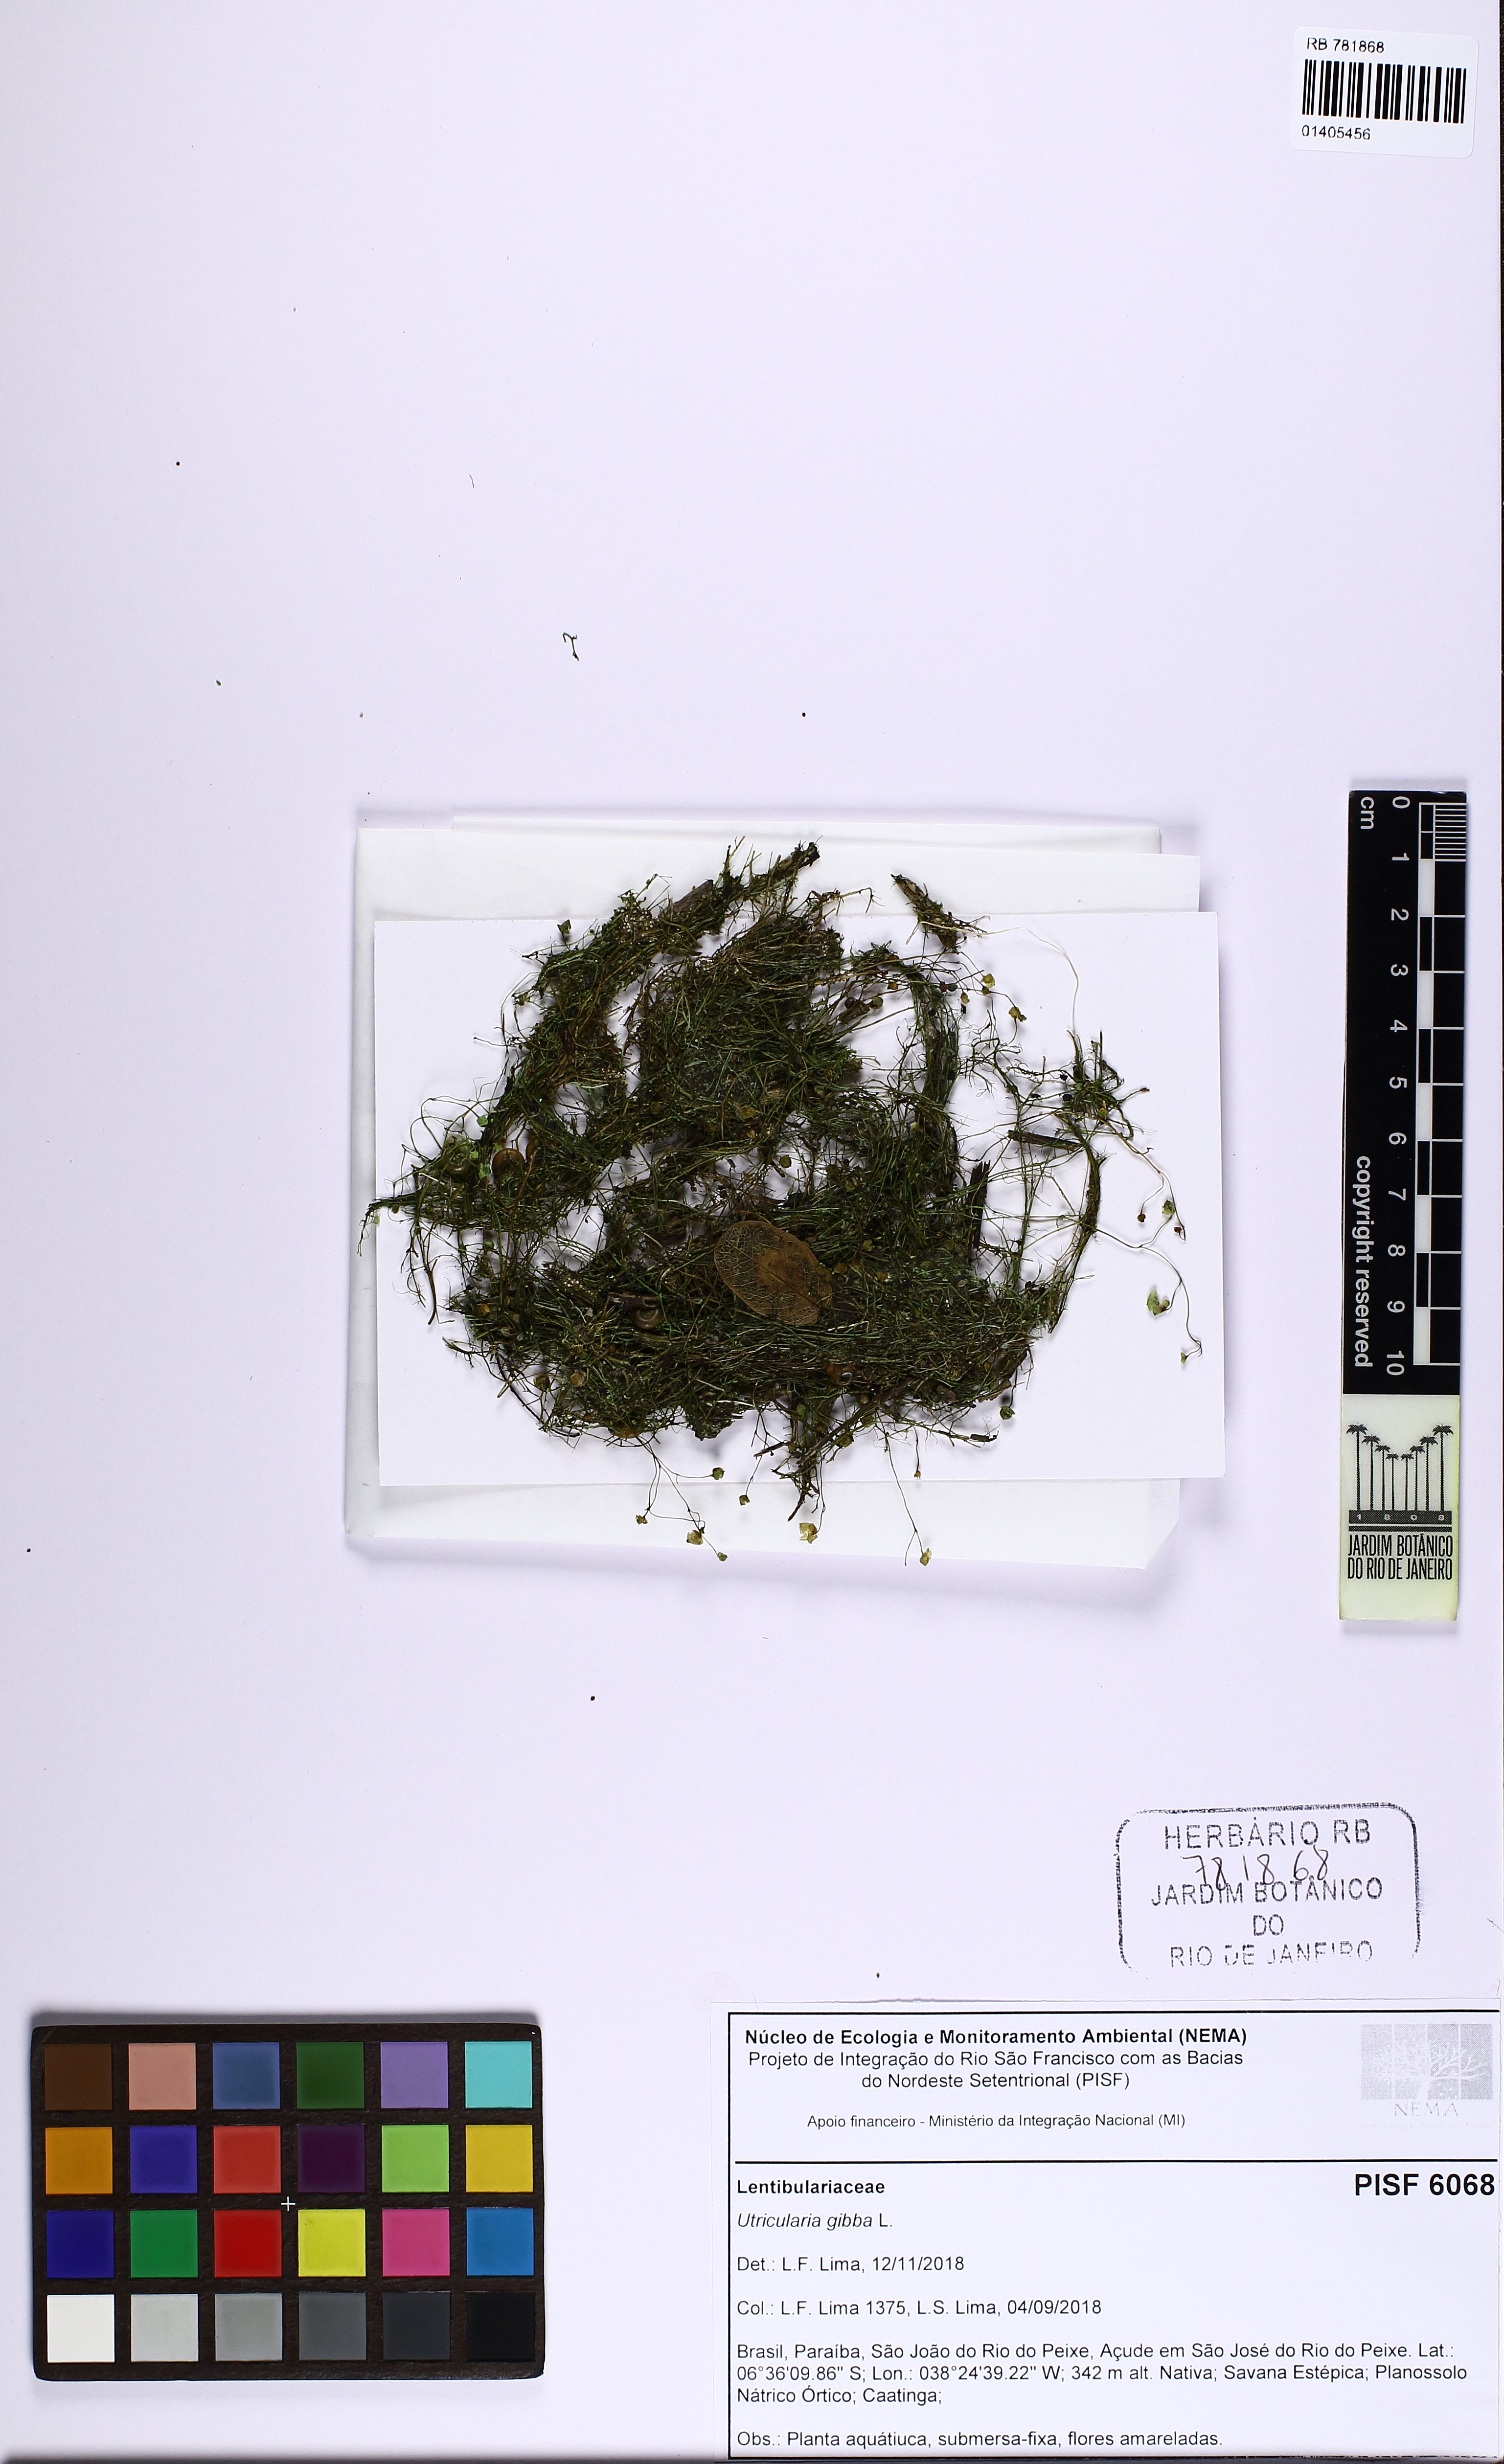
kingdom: Plantae
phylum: Tracheophyta
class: Magnoliopsida
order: Lamiales
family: Lentibulariaceae
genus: Utricularia
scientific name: Utricularia gibba
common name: Humped bladderwort
